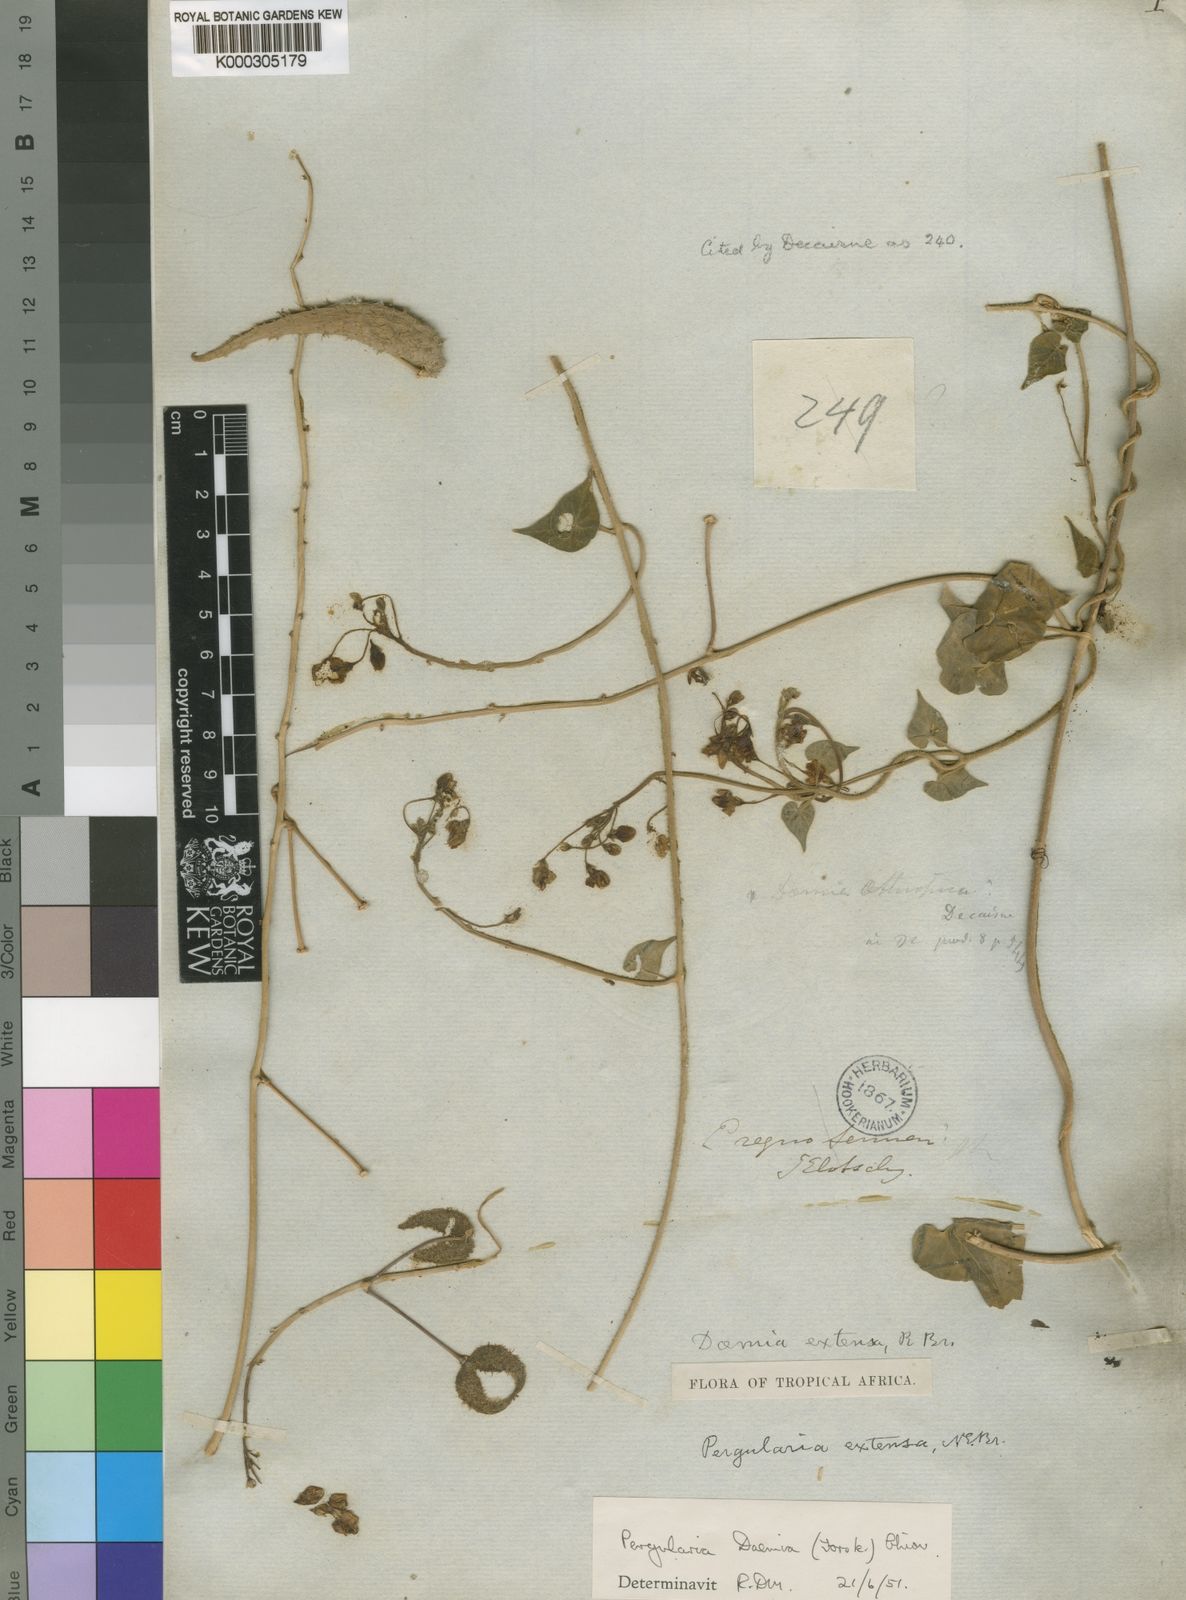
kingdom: Plantae
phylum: Tracheophyta
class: Magnoliopsida
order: Gentianales
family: Apocynaceae
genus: Pergularia
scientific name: Pergularia daemia
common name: Trellis-vine
